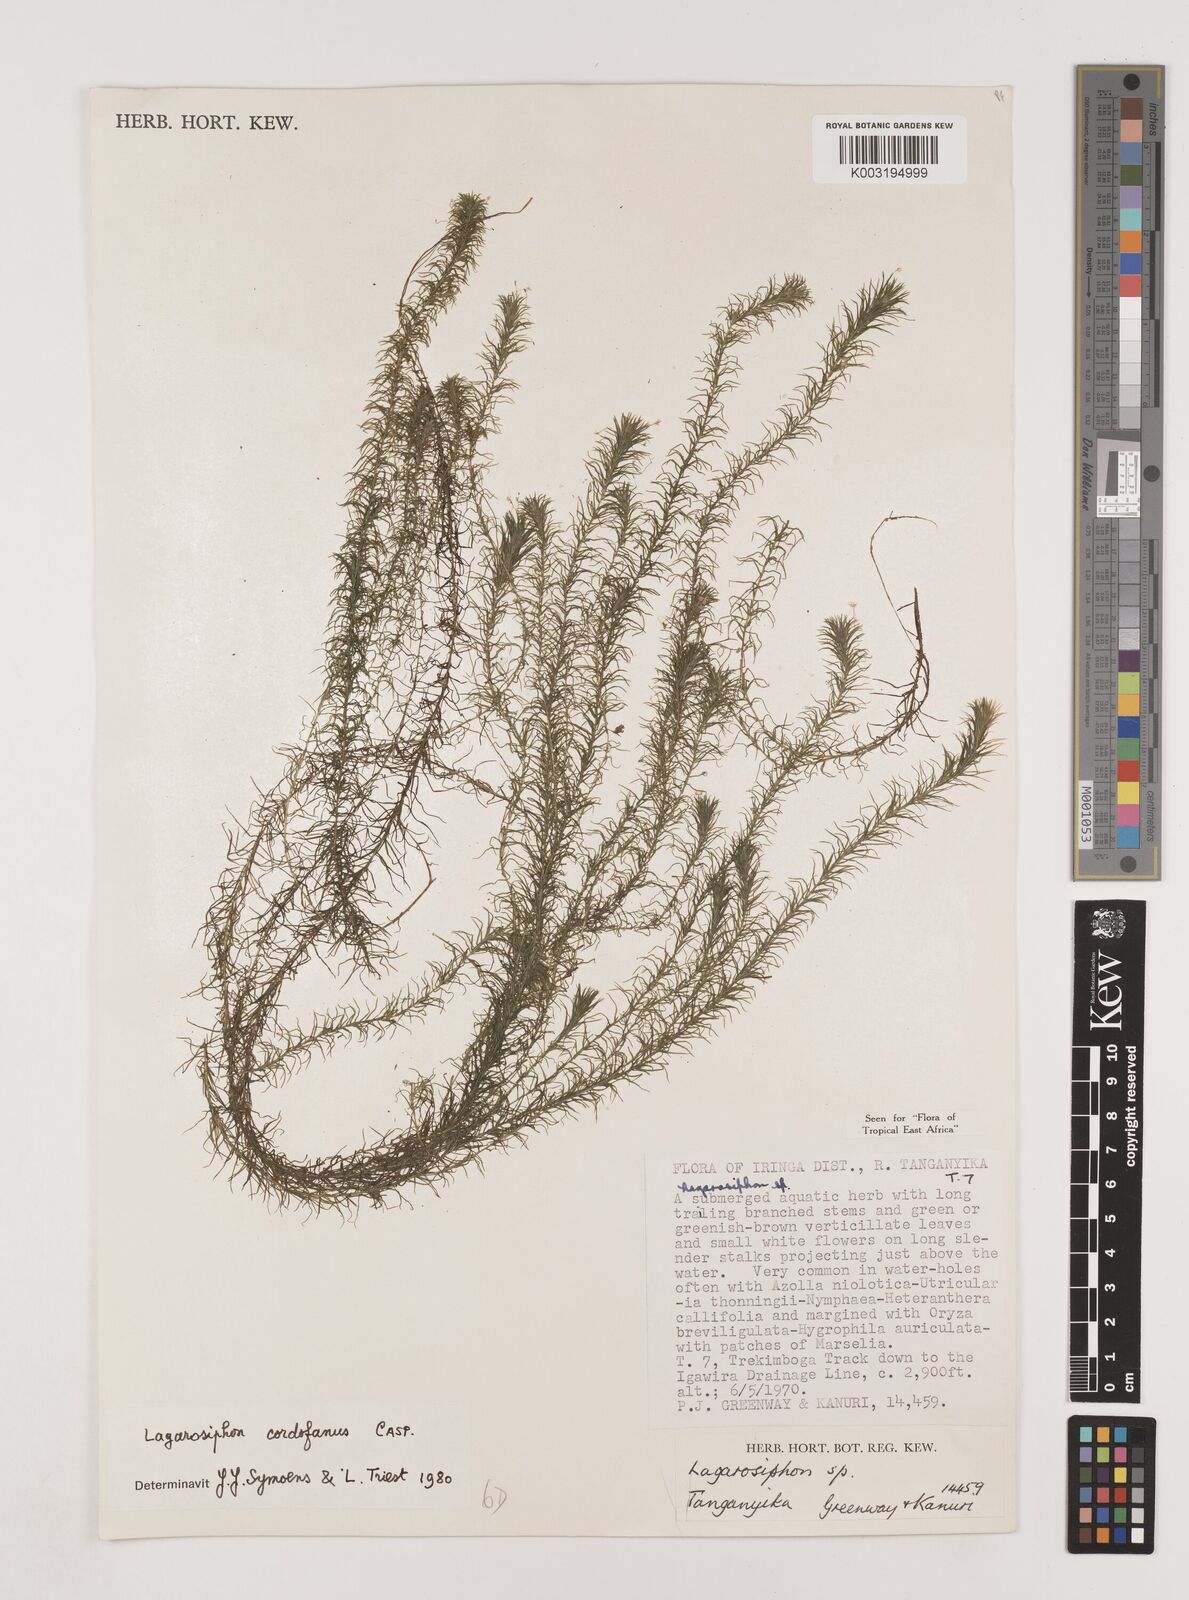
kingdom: Plantae
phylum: Tracheophyta
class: Liliopsida
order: Alismatales
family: Hydrocharitaceae
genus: Lagarosiphon
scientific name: Lagarosiphon cordofanus
